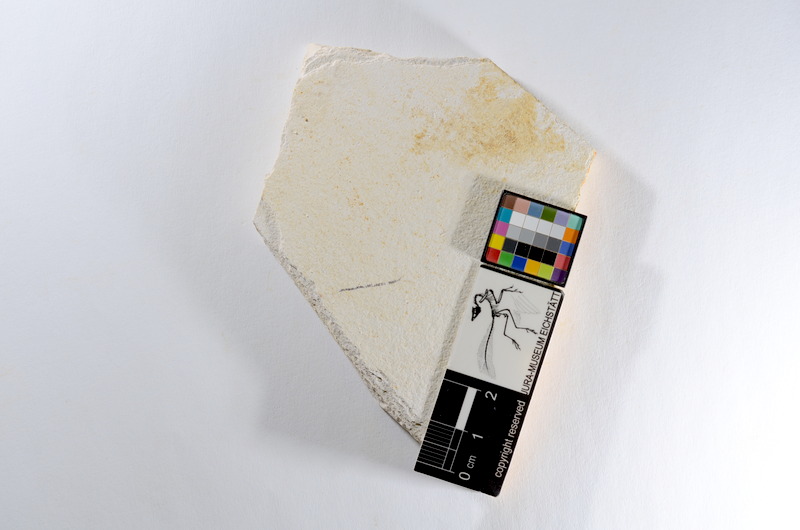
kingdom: Animalia
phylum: Chordata
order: Salmoniformes
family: Orthogonikleithridae
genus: Orthogonikleithrus
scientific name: Orthogonikleithrus hoelli
